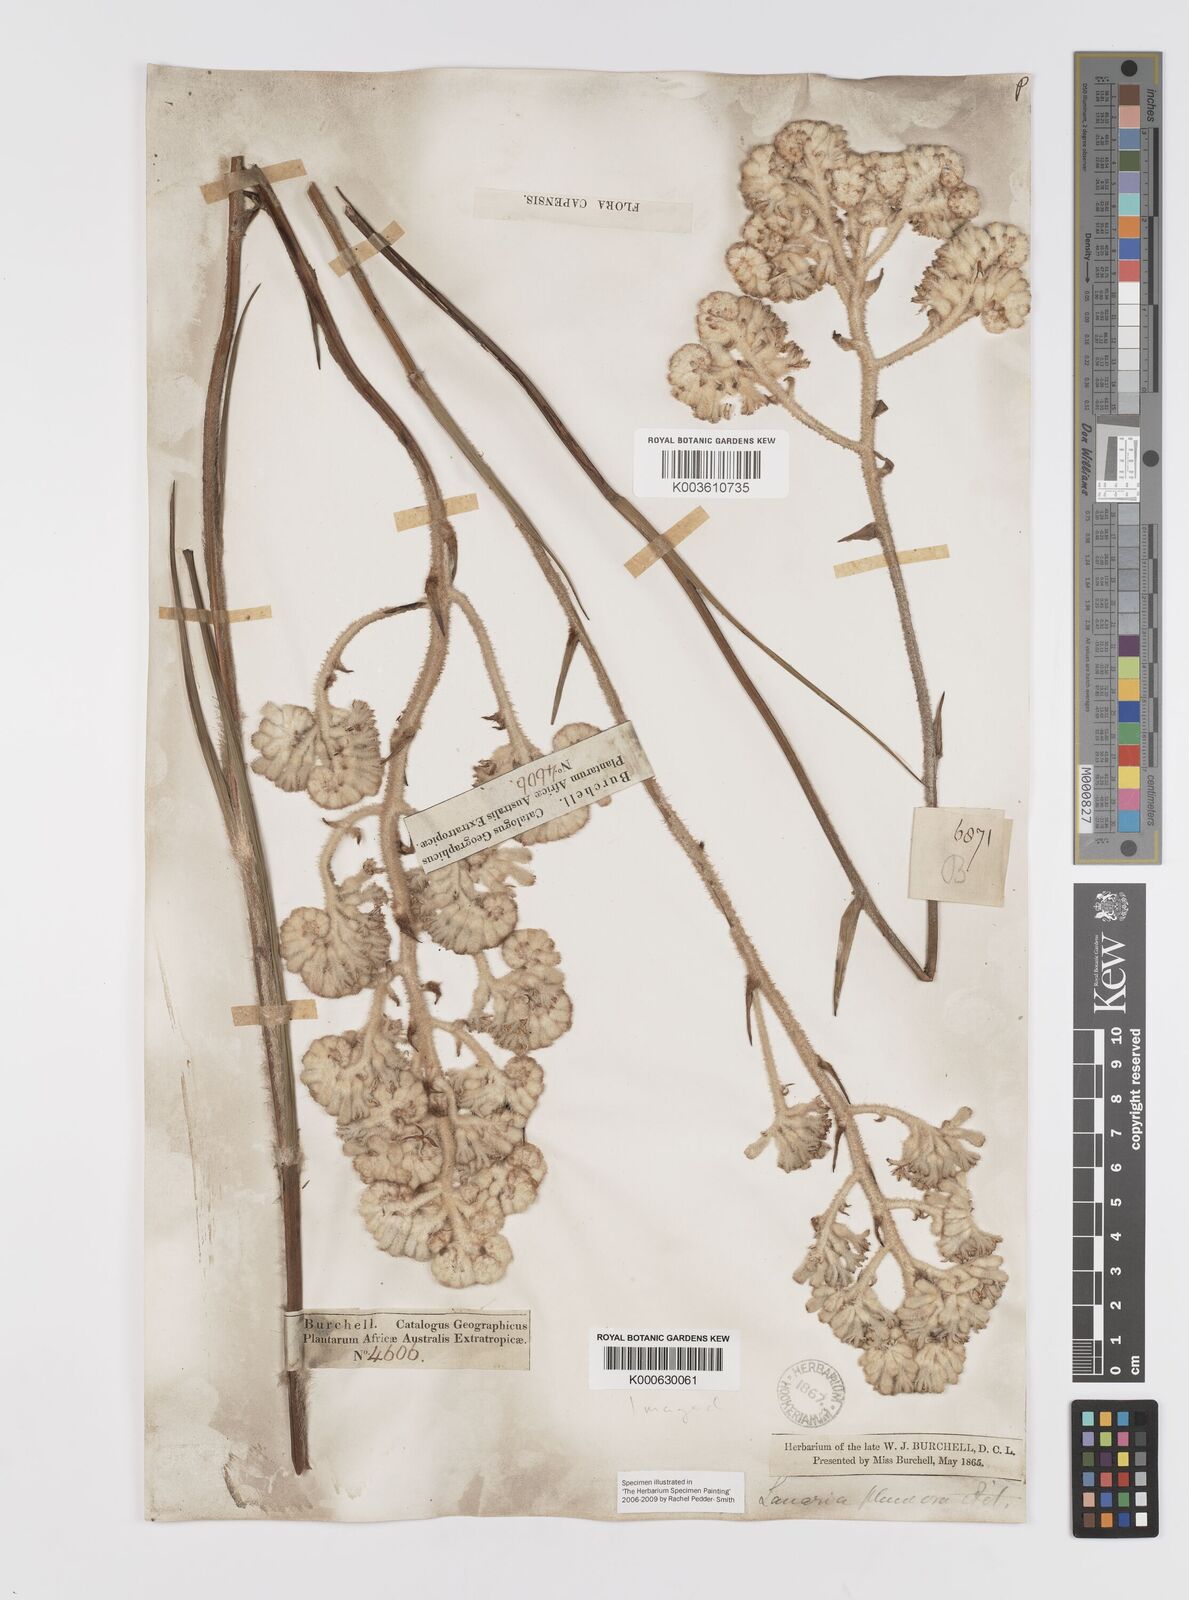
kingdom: Plantae
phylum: Tracheophyta
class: Liliopsida
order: Asparagales
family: Lanariaceae
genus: Lanaria
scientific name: Lanaria lanata
